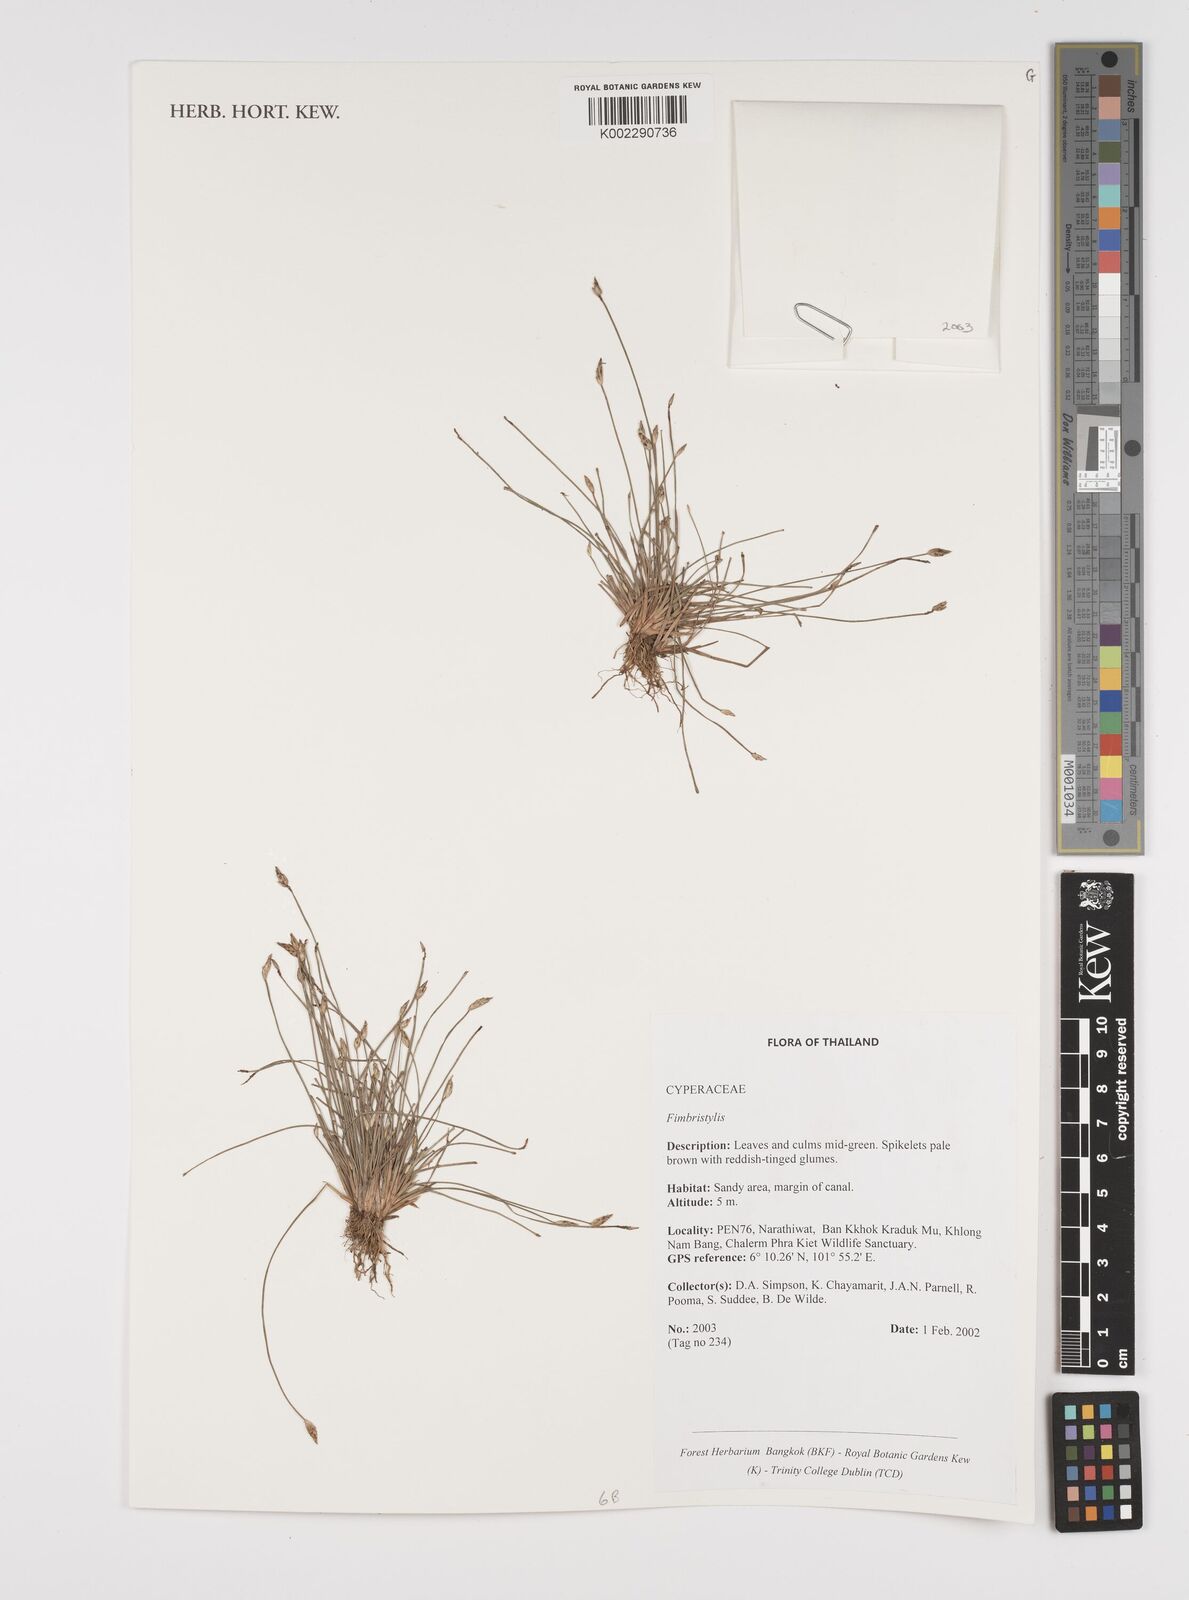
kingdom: Plantae
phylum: Tracheophyta
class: Liliopsida
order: Poales
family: Cyperaceae
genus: Fimbristylis
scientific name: Fimbristylis
